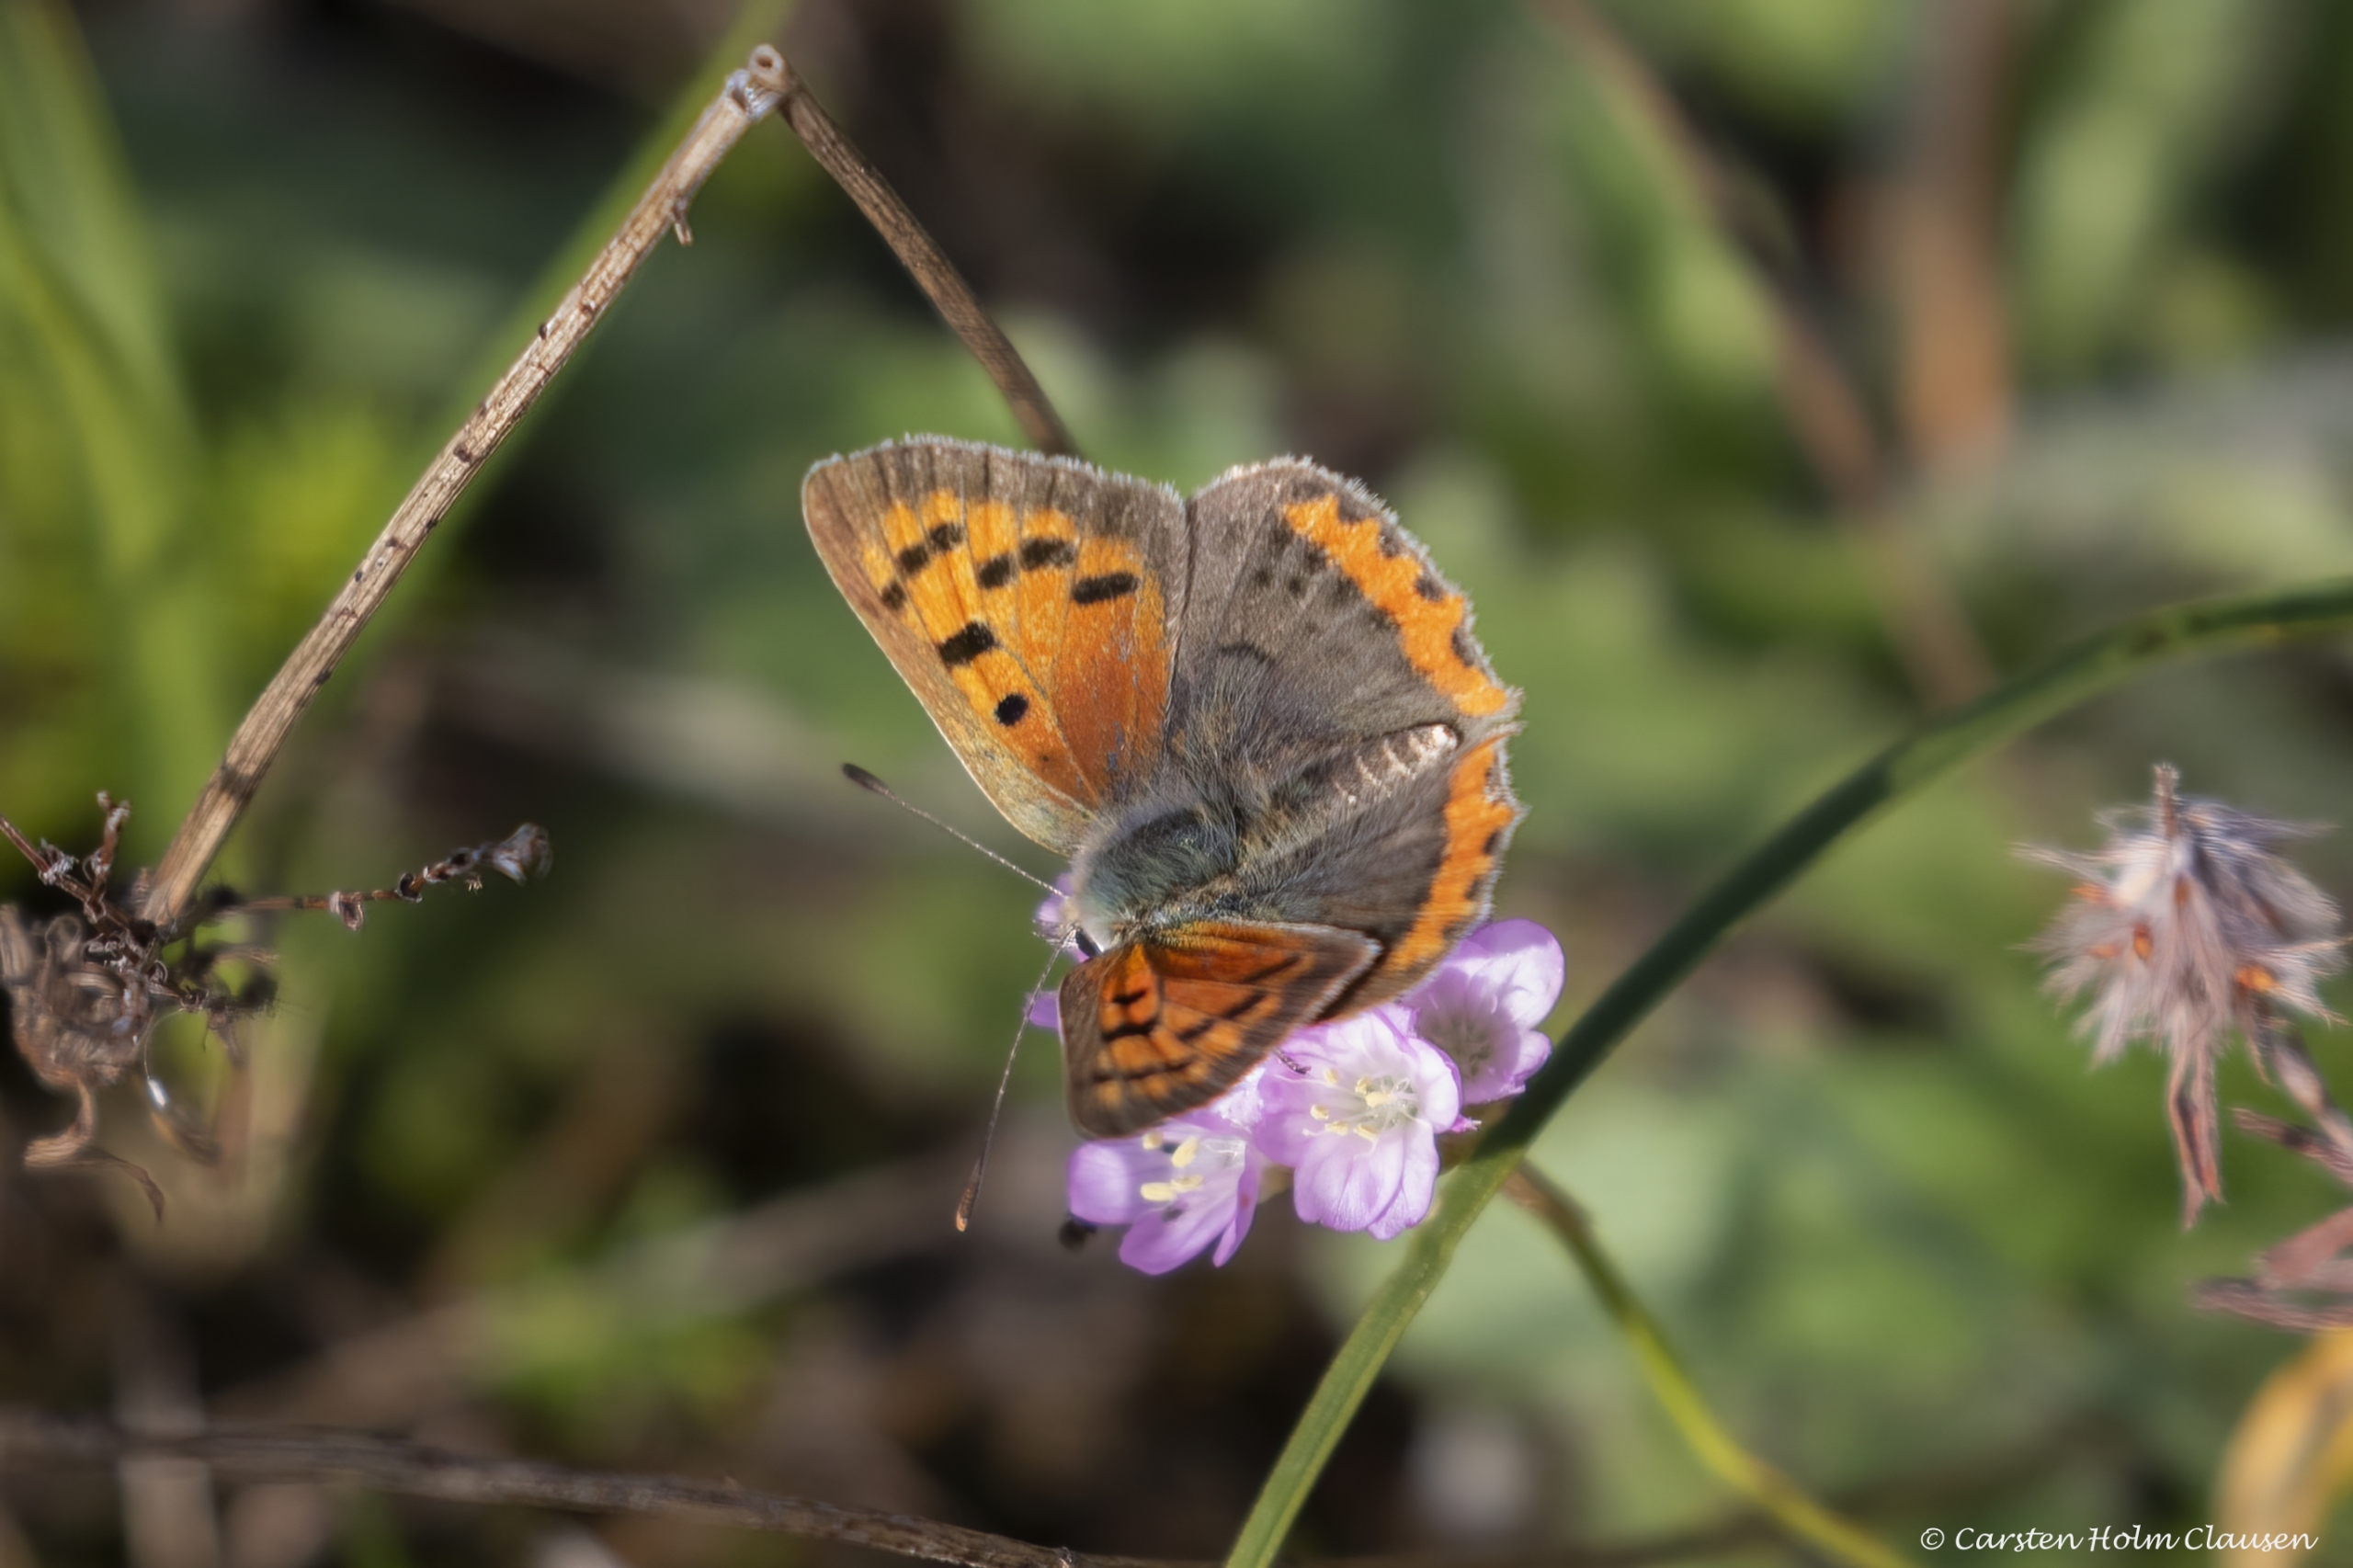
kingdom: Animalia
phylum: Arthropoda
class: Insecta
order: Lepidoptera
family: Lycaenidae
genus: Lycaena
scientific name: Lycaena phlaeas
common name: Lille ildfugl
